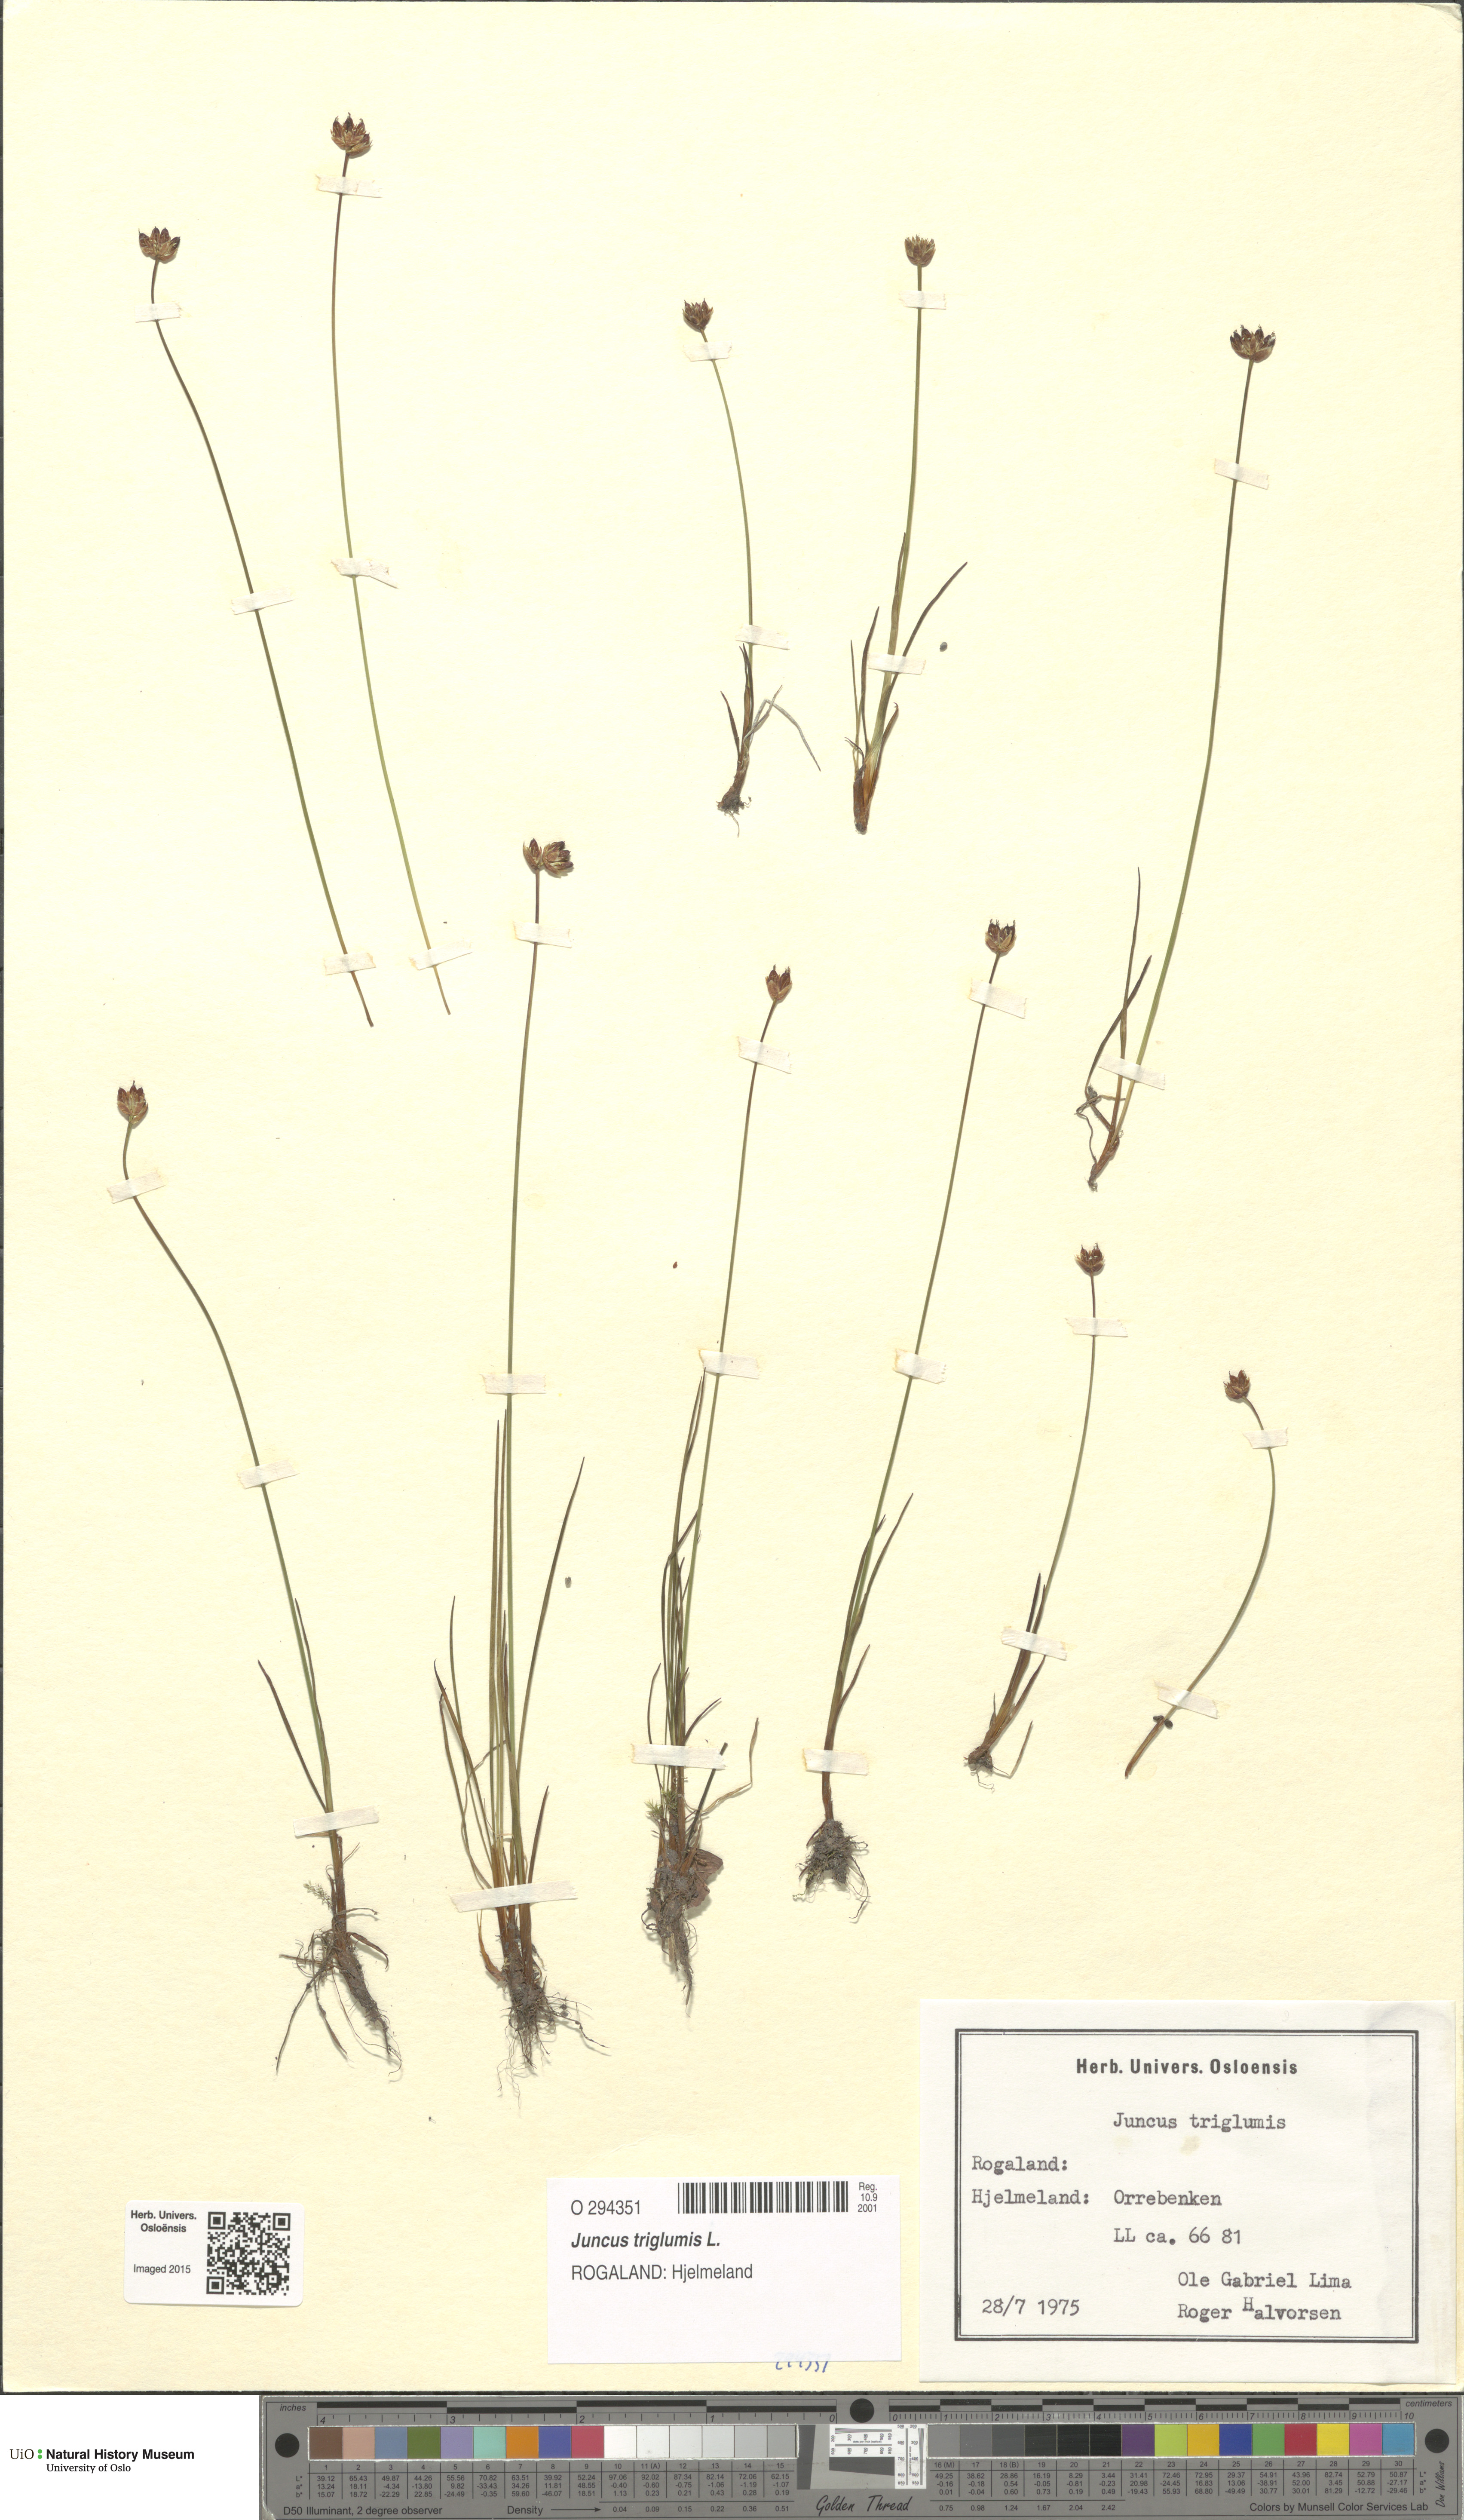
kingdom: Plantae
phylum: Tracheophyta
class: Liliopsida
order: Poales
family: Juncaceae
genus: Juncus
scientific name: Juncus triglumis
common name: Three-flowered rush
